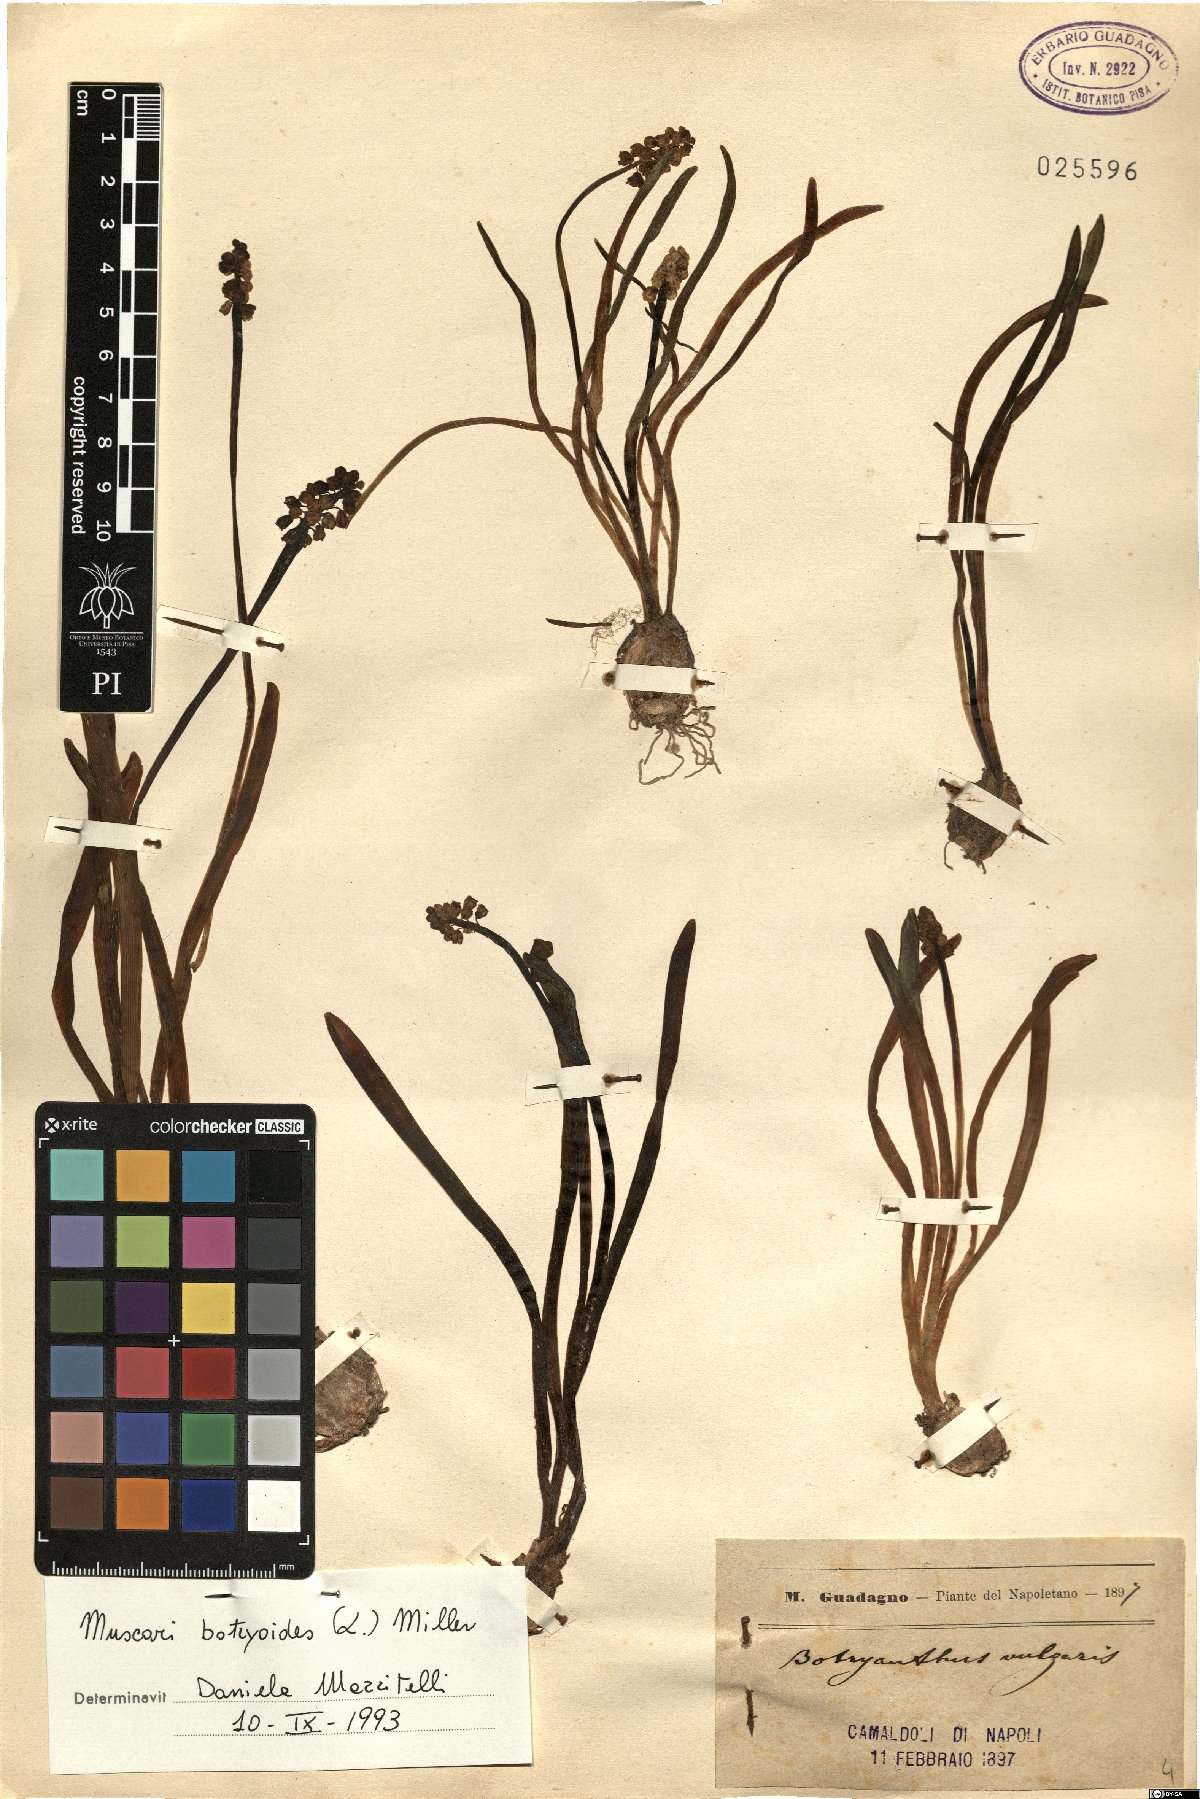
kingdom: Plantae
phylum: Tracheophyta
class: Liliopsida
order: Asparagales
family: Asparagaceae
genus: Muscari
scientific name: Muscari botryoides
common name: Compact grape-hyacinth
